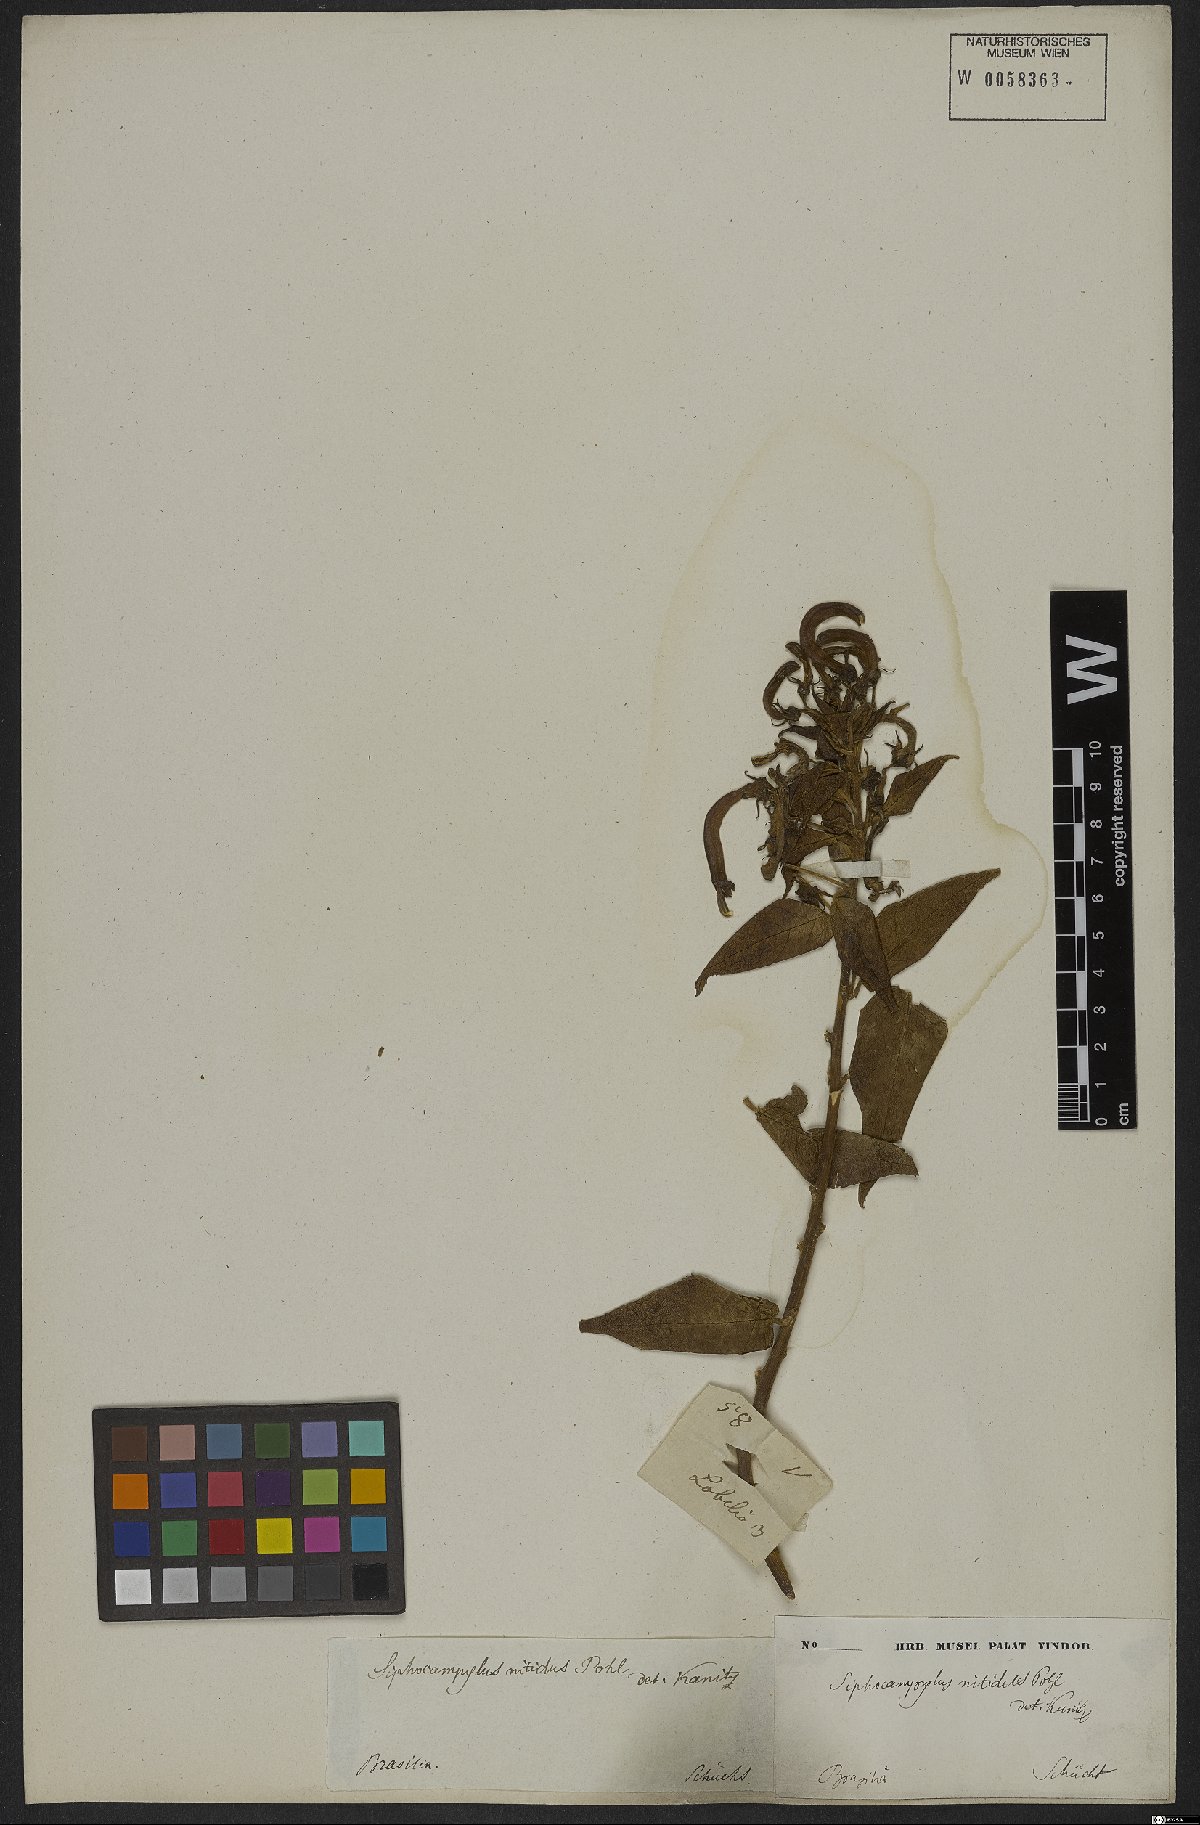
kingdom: Plantae
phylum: Tracheophyta
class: Magnoliopsida
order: Asterales
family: Campanulaceae
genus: Siphocampylus
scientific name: Siphocampylus nitidus
